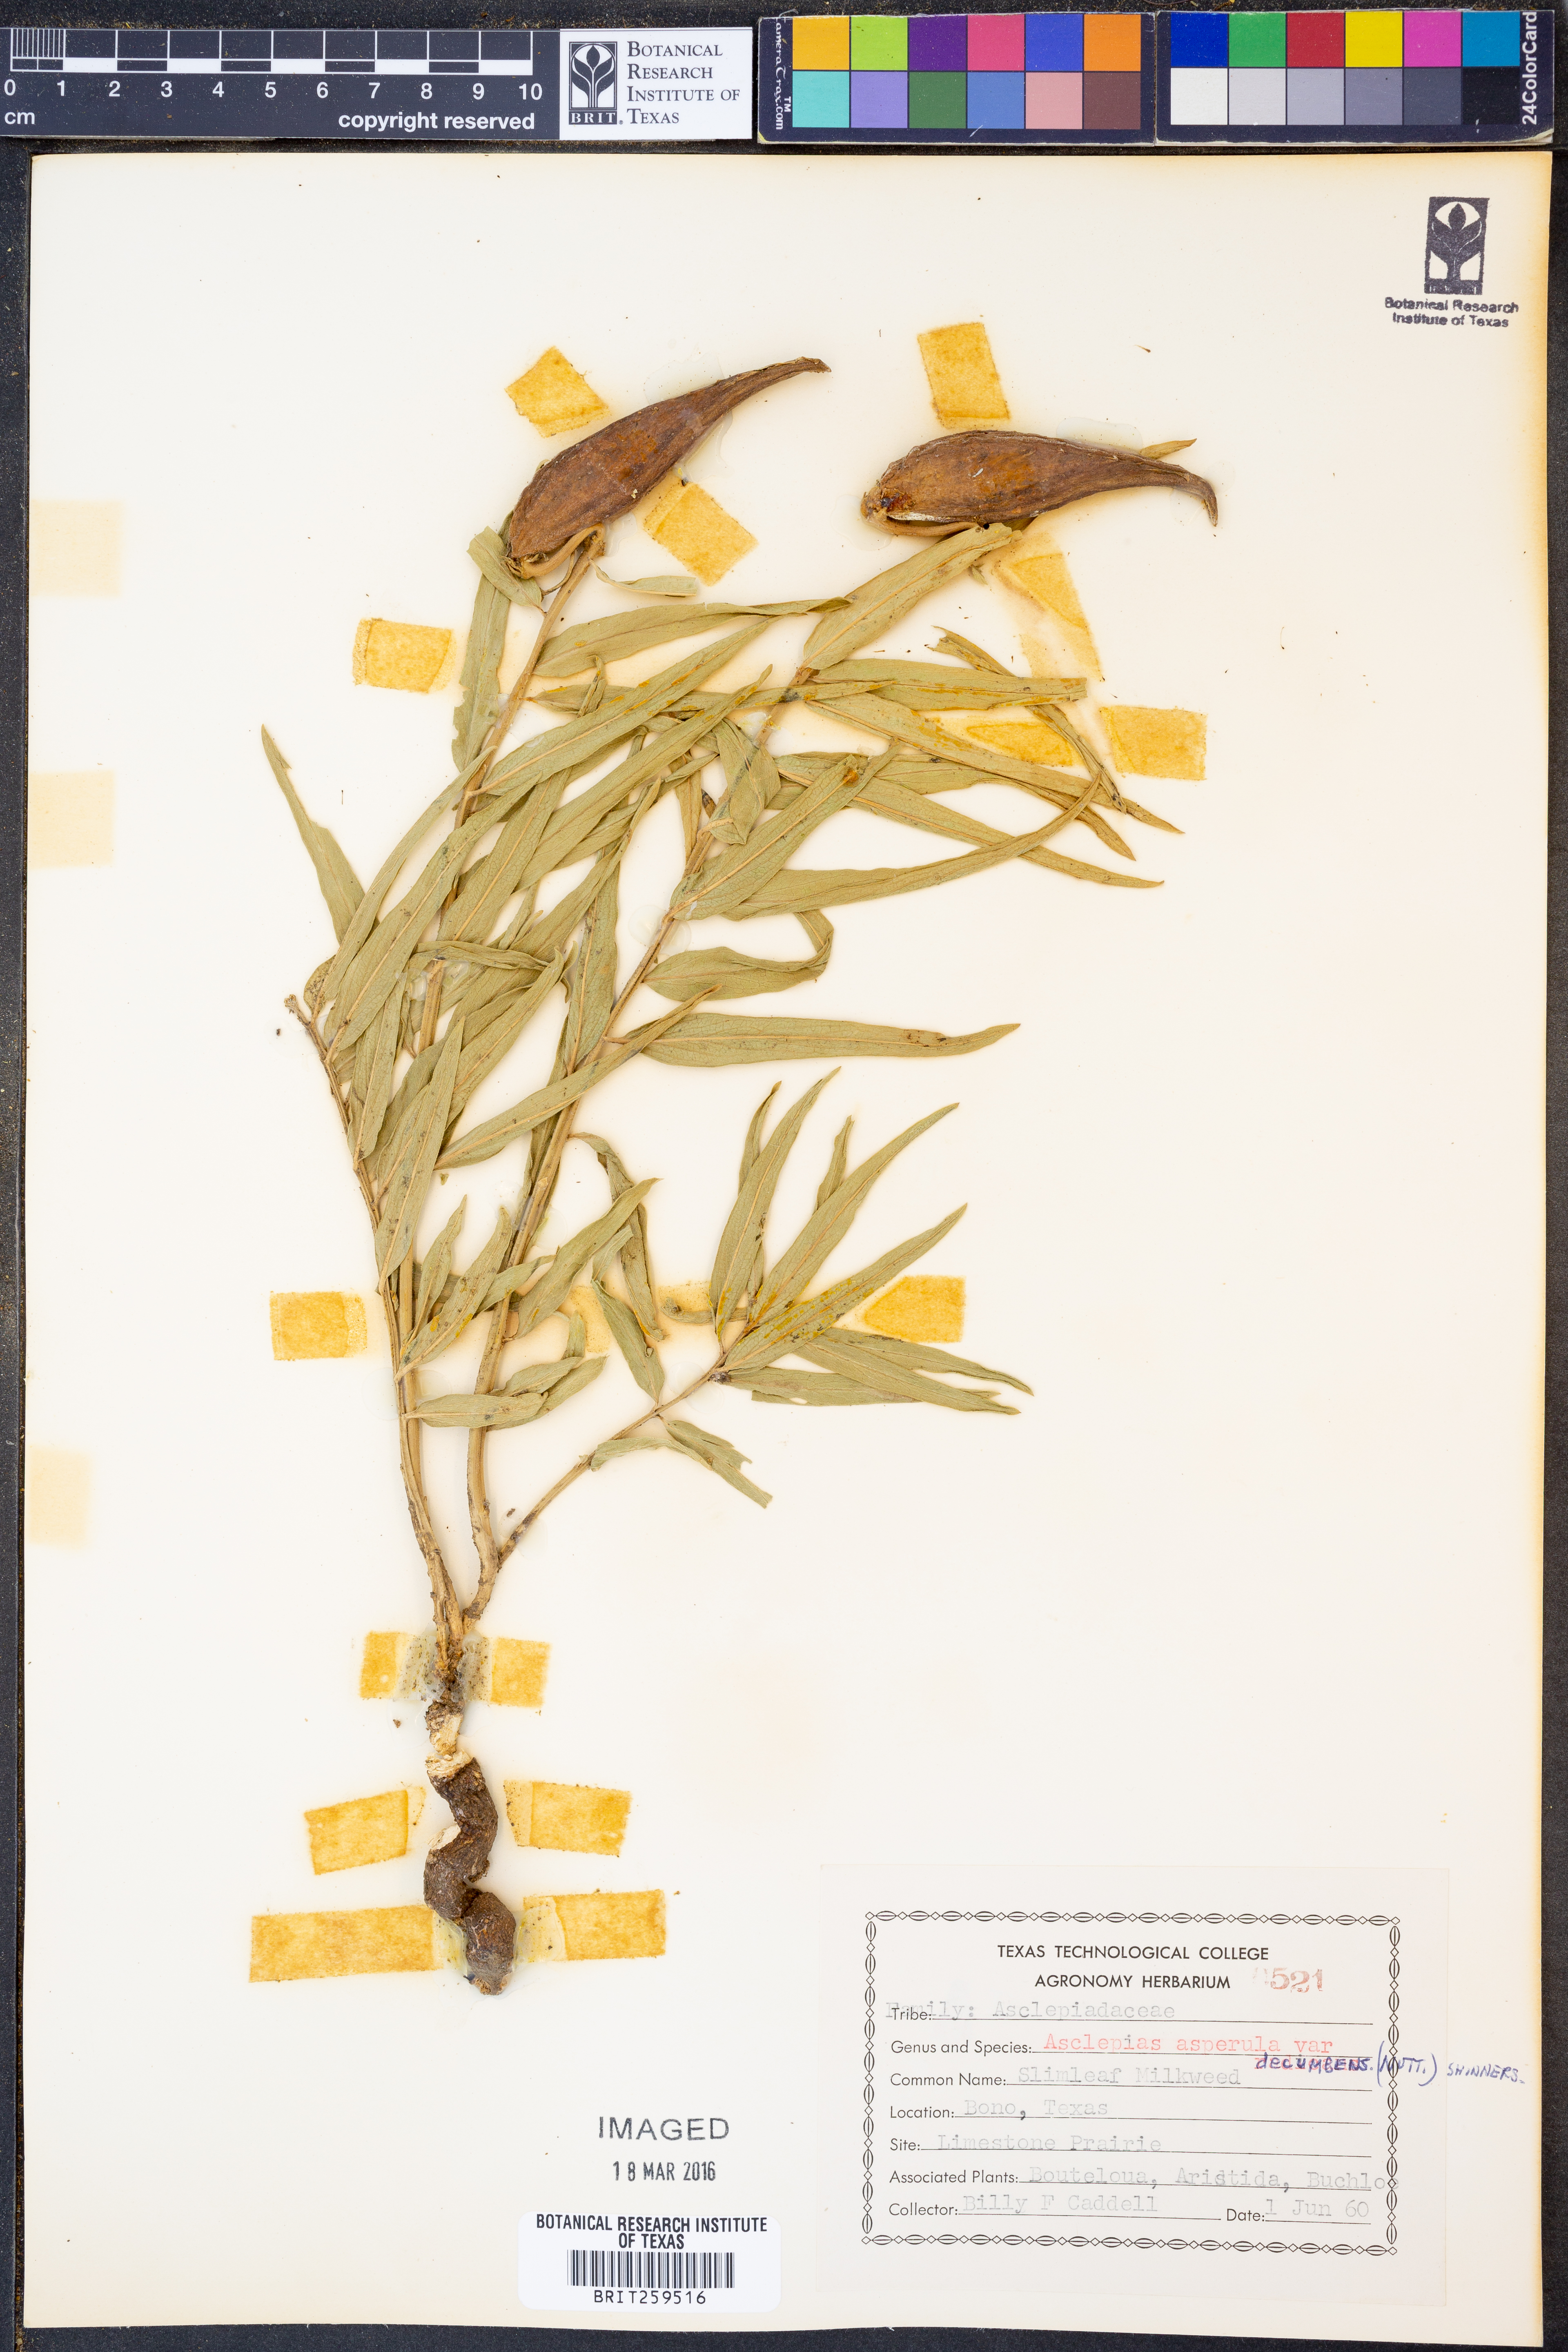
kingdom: Plantae
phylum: Tracheophyta
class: Magnoliopsida
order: Gentianales
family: Apocynaceae
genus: Asclepias
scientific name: Asclepias asperula
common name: Antelope horns
